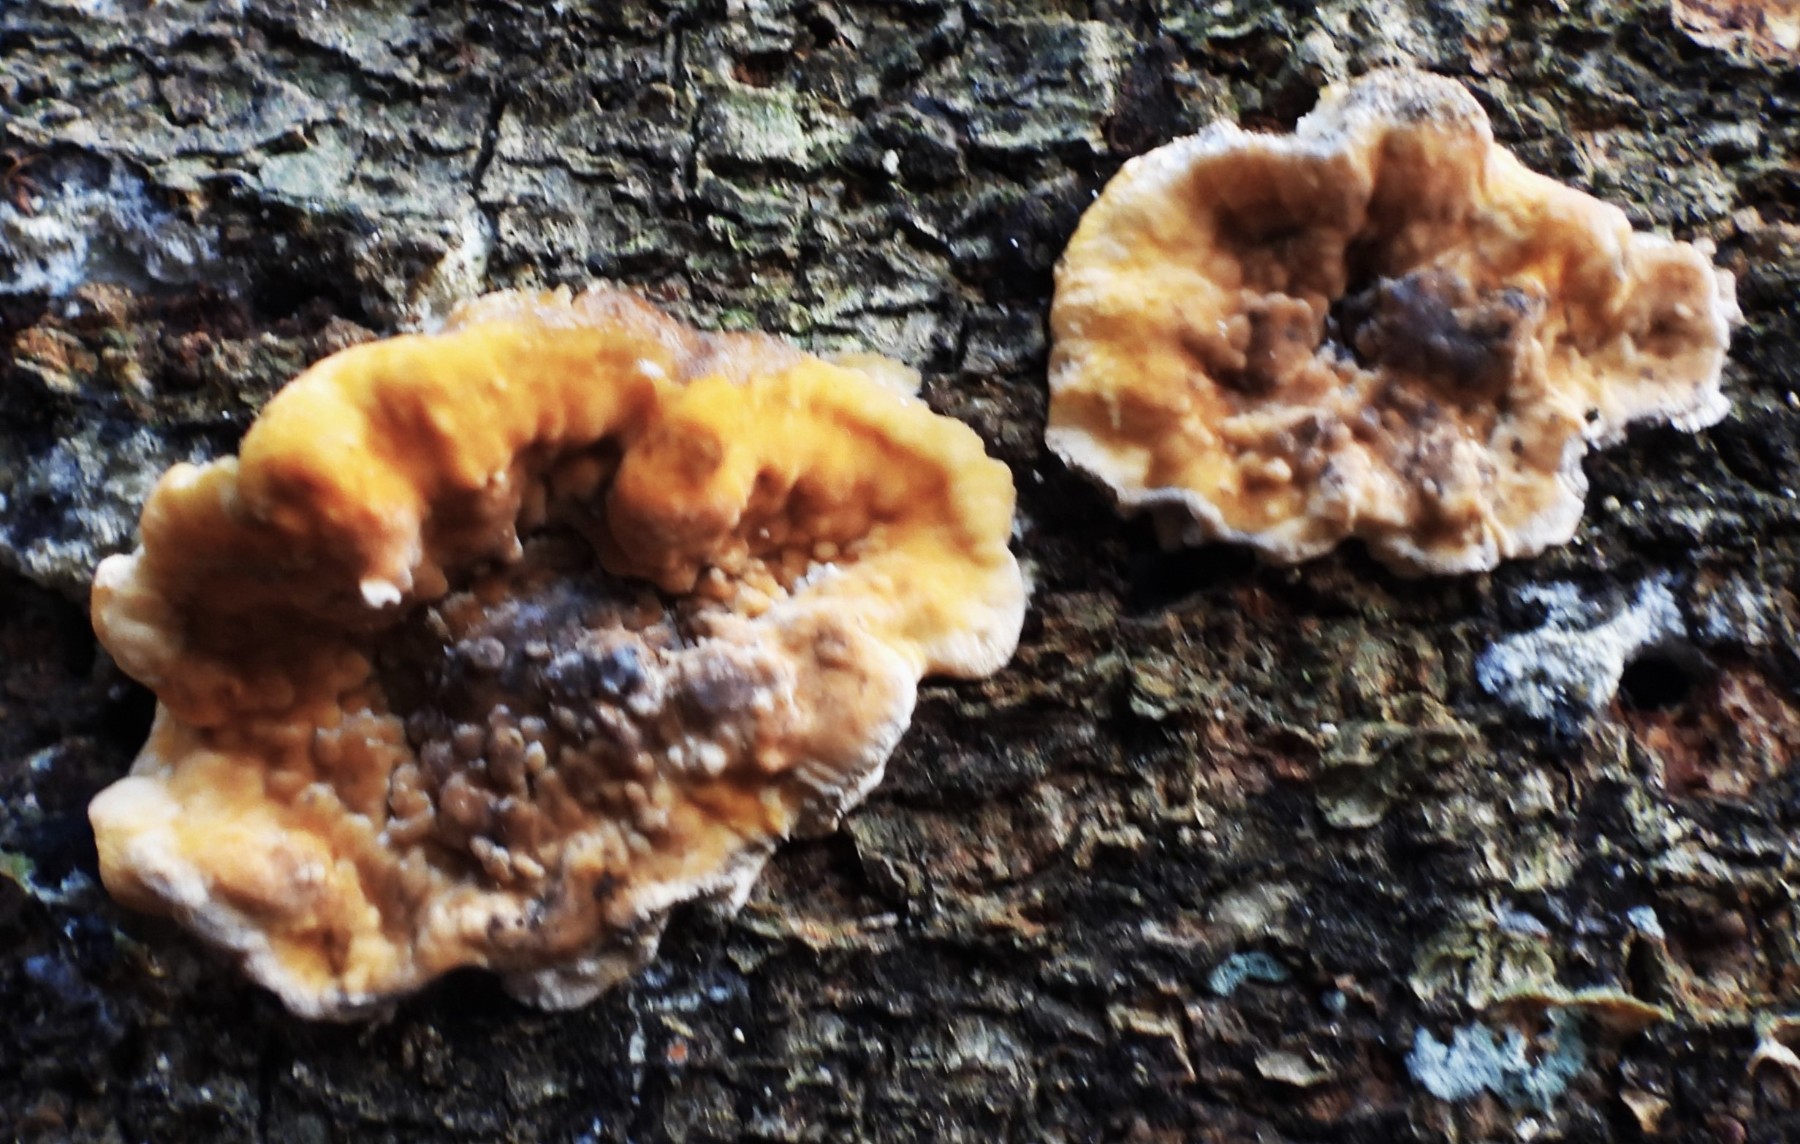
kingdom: Fungi
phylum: Basidiomycota
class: Agaricomycetes
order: Russulales
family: Stereaceae
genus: Stereum
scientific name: Stereum hirsutum
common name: håret lædersvamp
